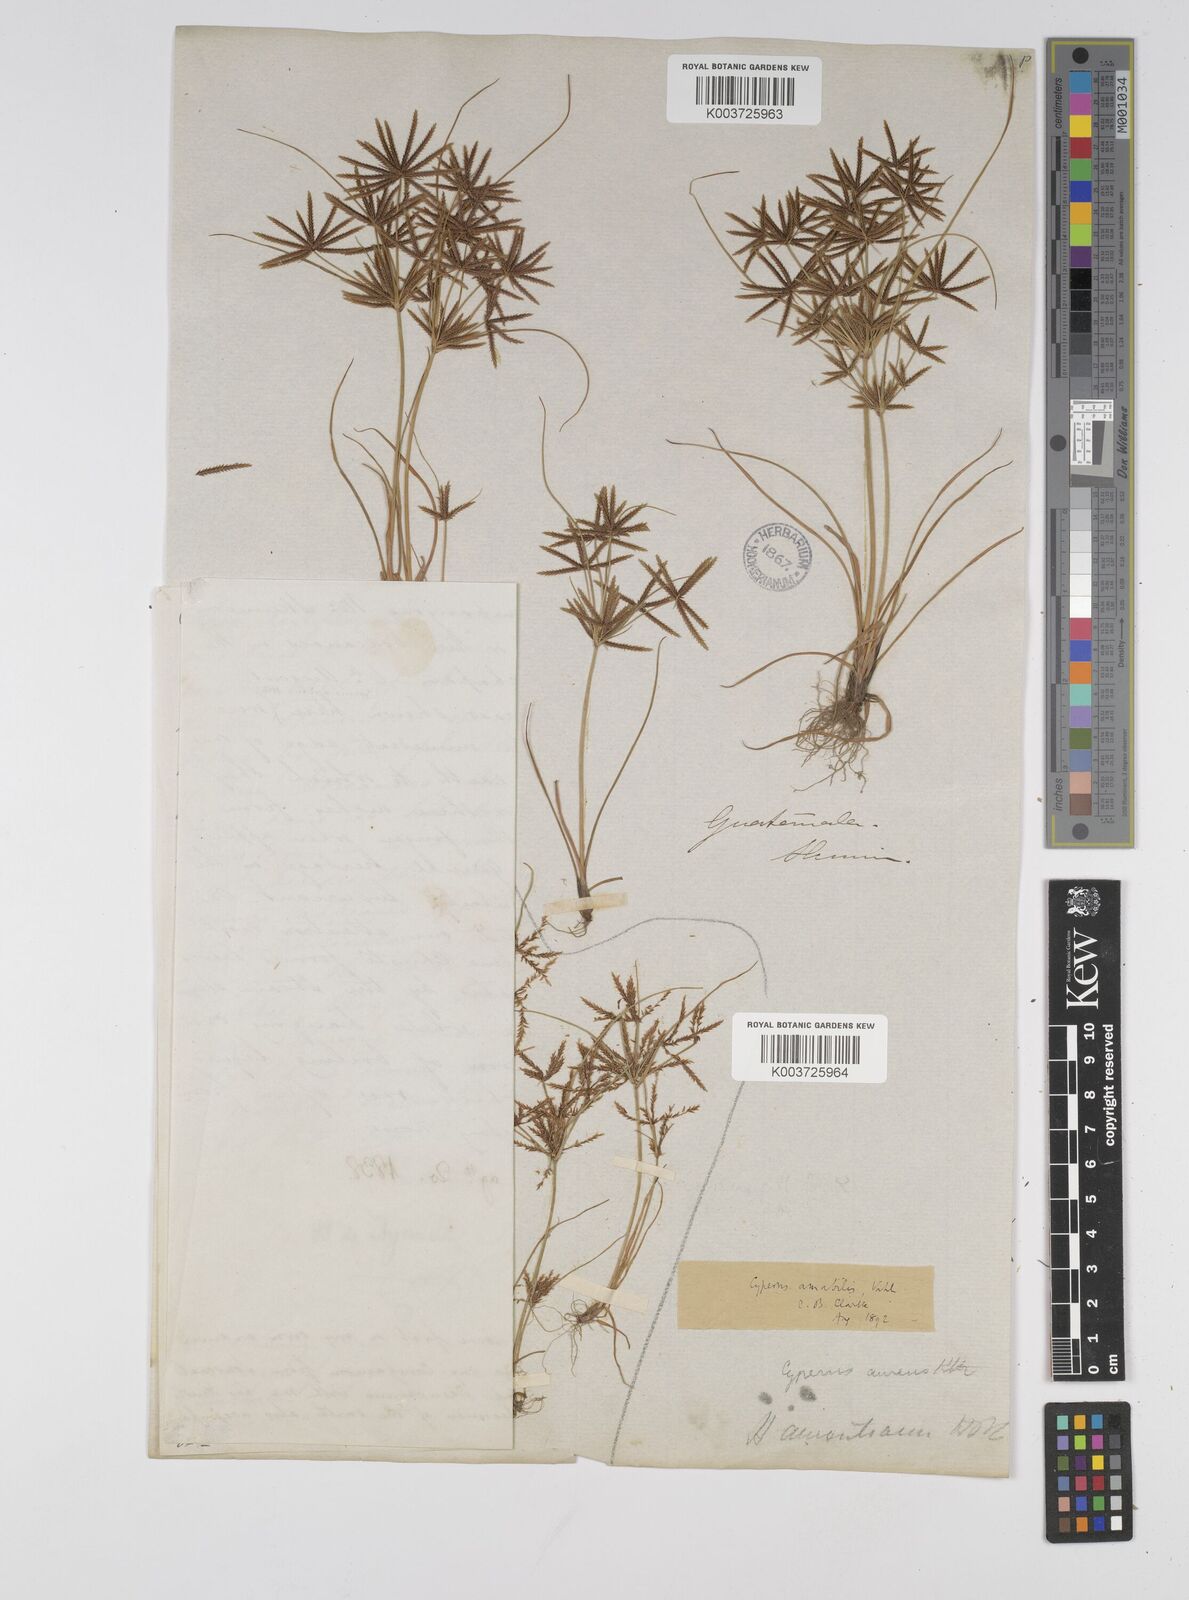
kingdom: Plantae
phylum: Tracheophyta
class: Liliopsida
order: Poales
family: Cyperaceae
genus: Cyperus
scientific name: Cyperus amabilis
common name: Foothill flat sedge
